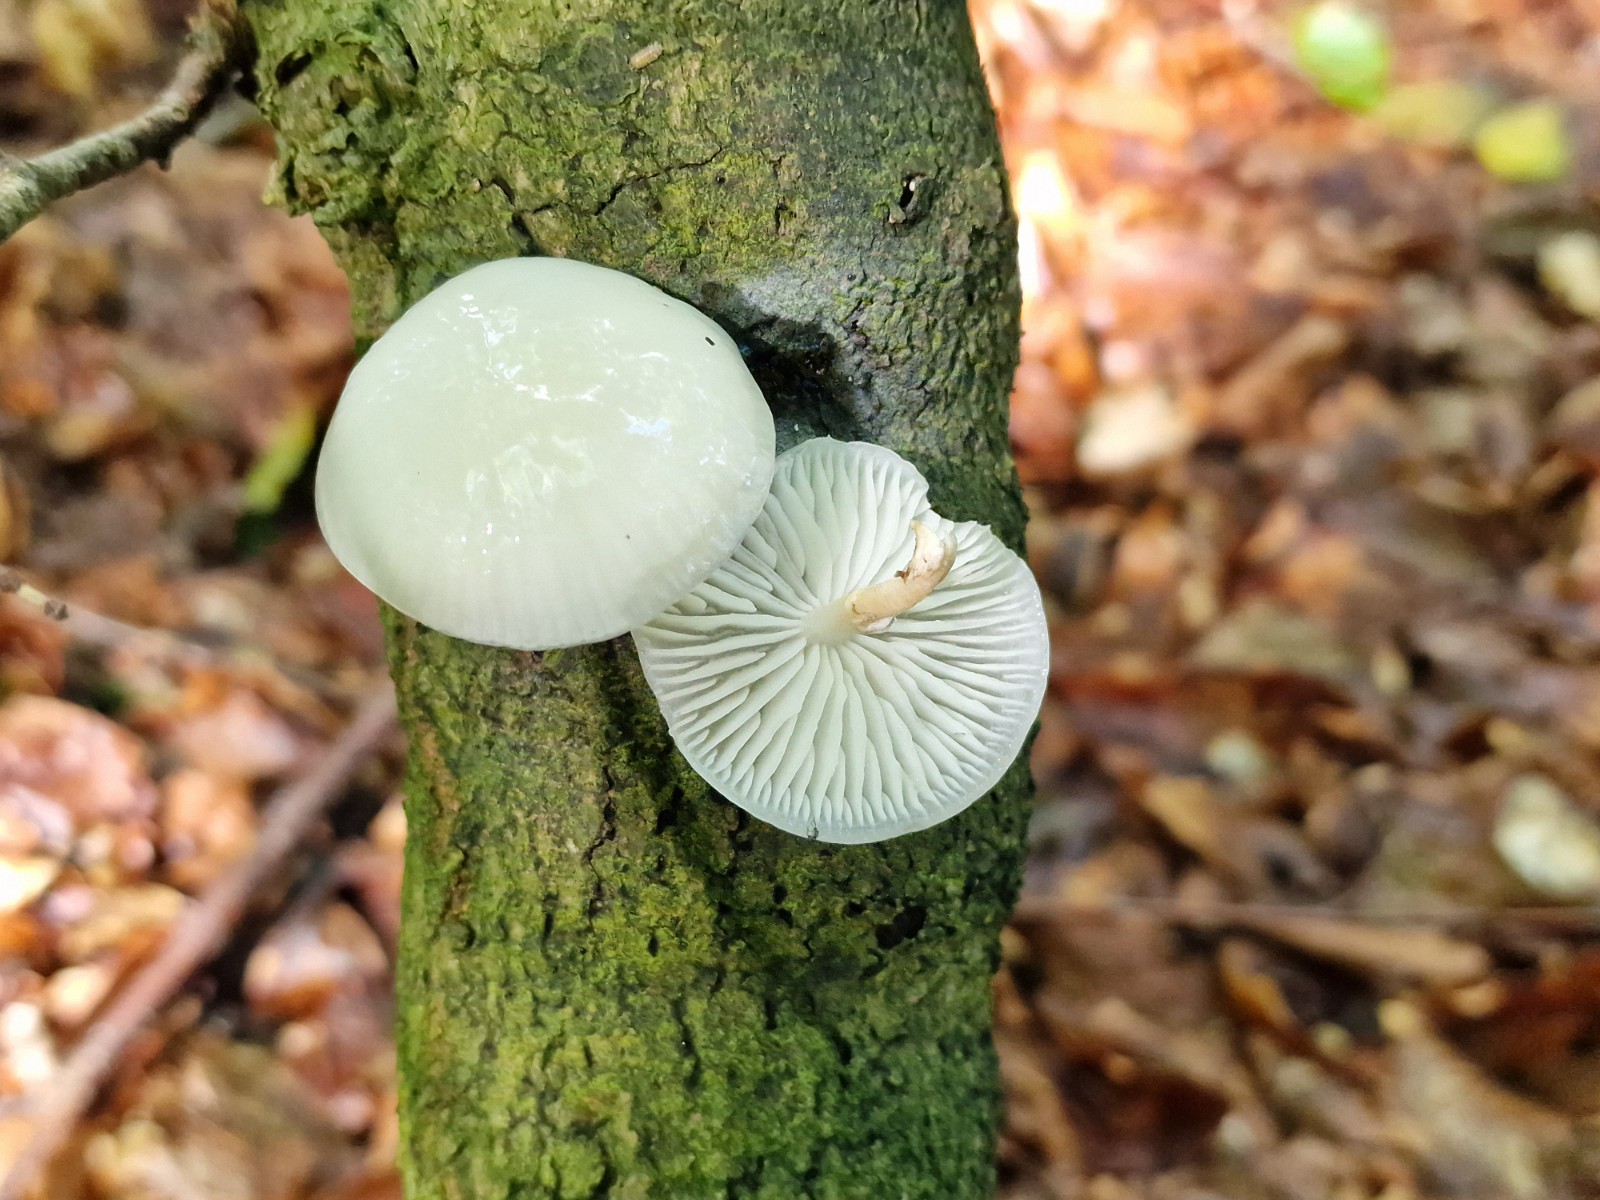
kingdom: Fungi
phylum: Basidiomycota
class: Agaricomycetes
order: Agaricales
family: Physalacriaceae
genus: Mucidula
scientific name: Mucidula mucida
